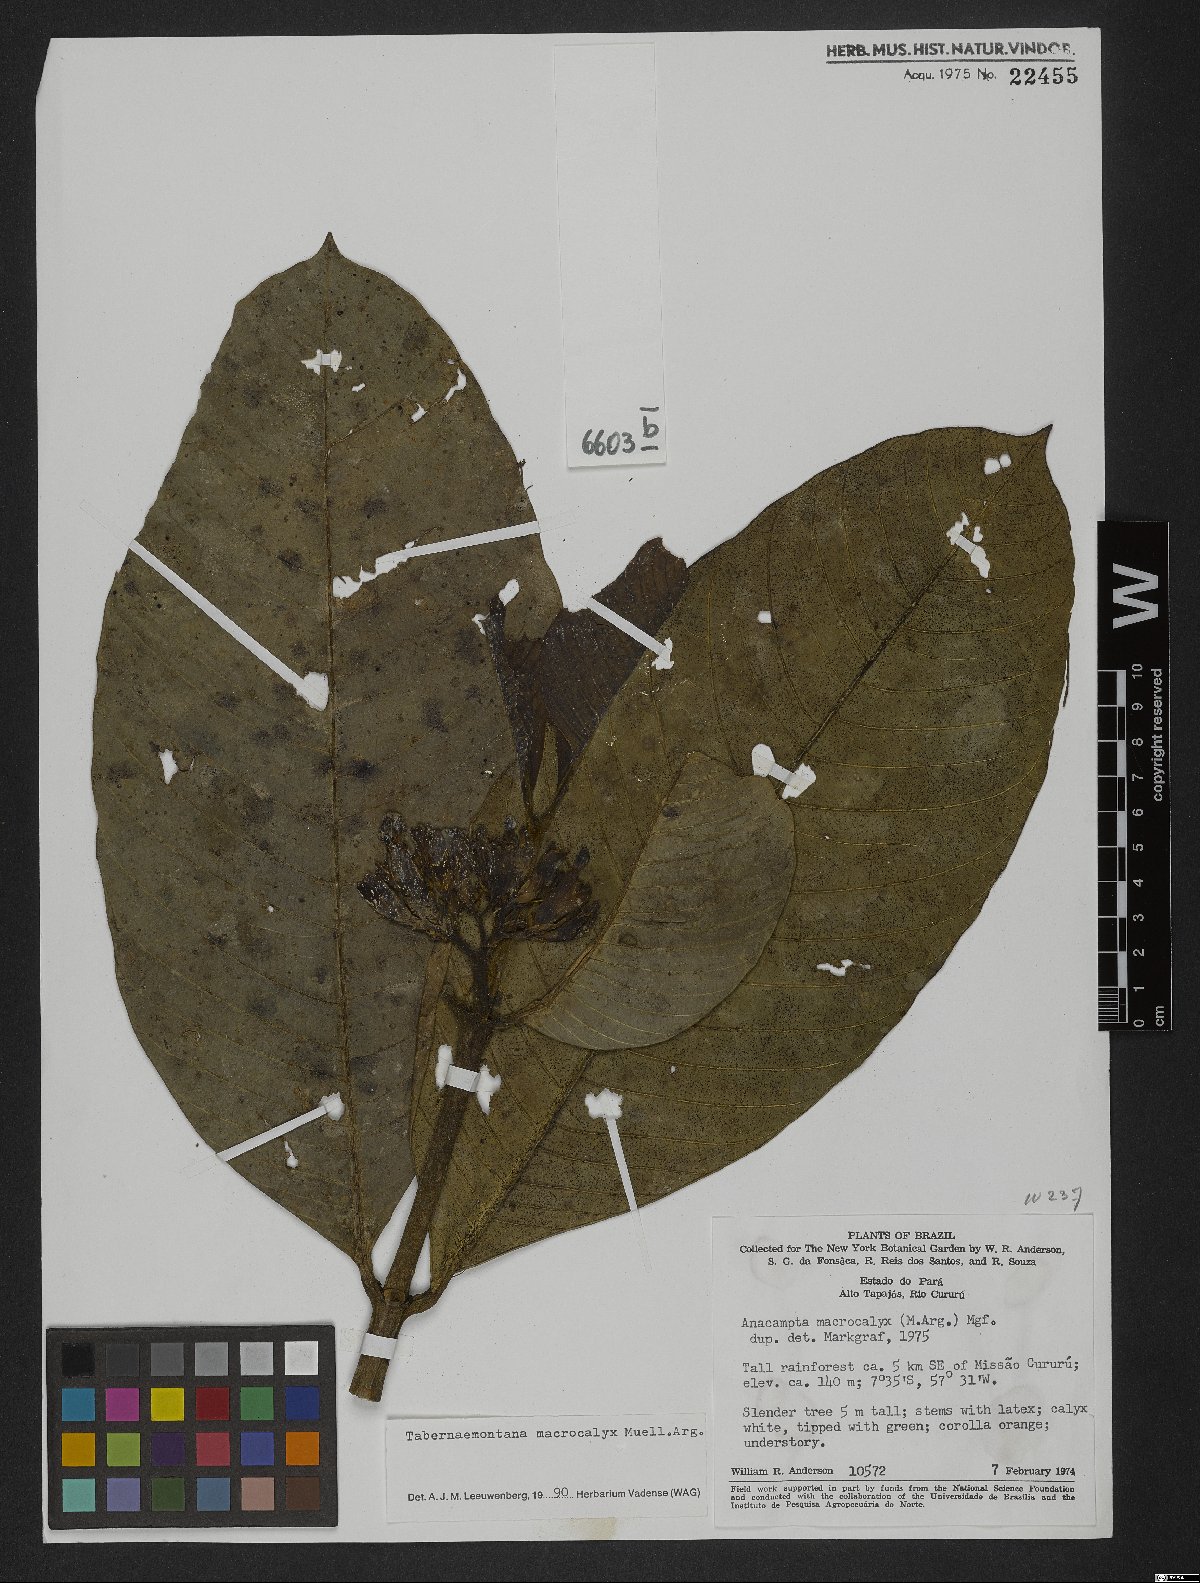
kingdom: Plantae
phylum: Tracheophyta
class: Magnoliopsida
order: Gentianales
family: Apocynaceae
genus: Tabernaemontana
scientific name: Tabernaemontana macrocalyx
